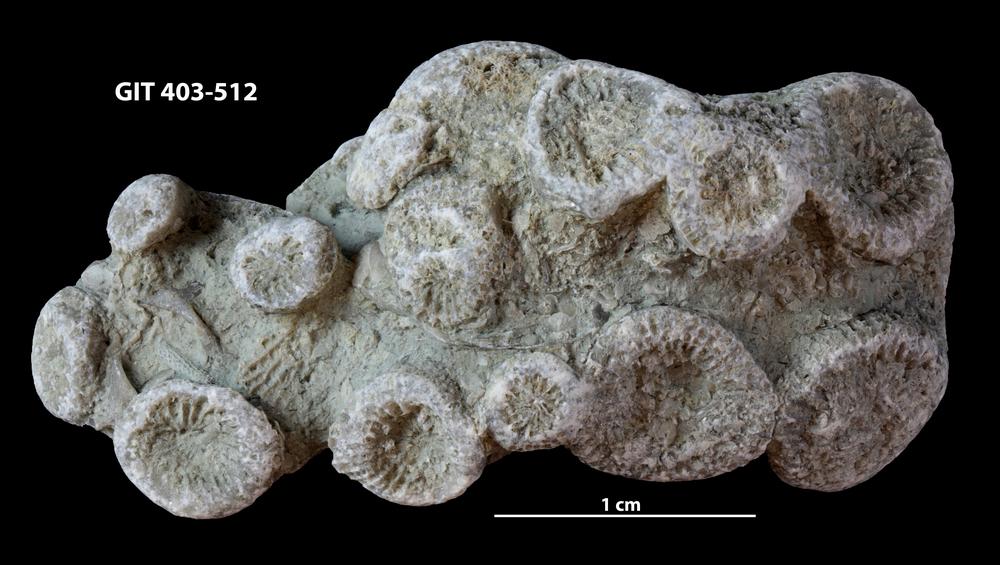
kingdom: Animalia
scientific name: Animalia
